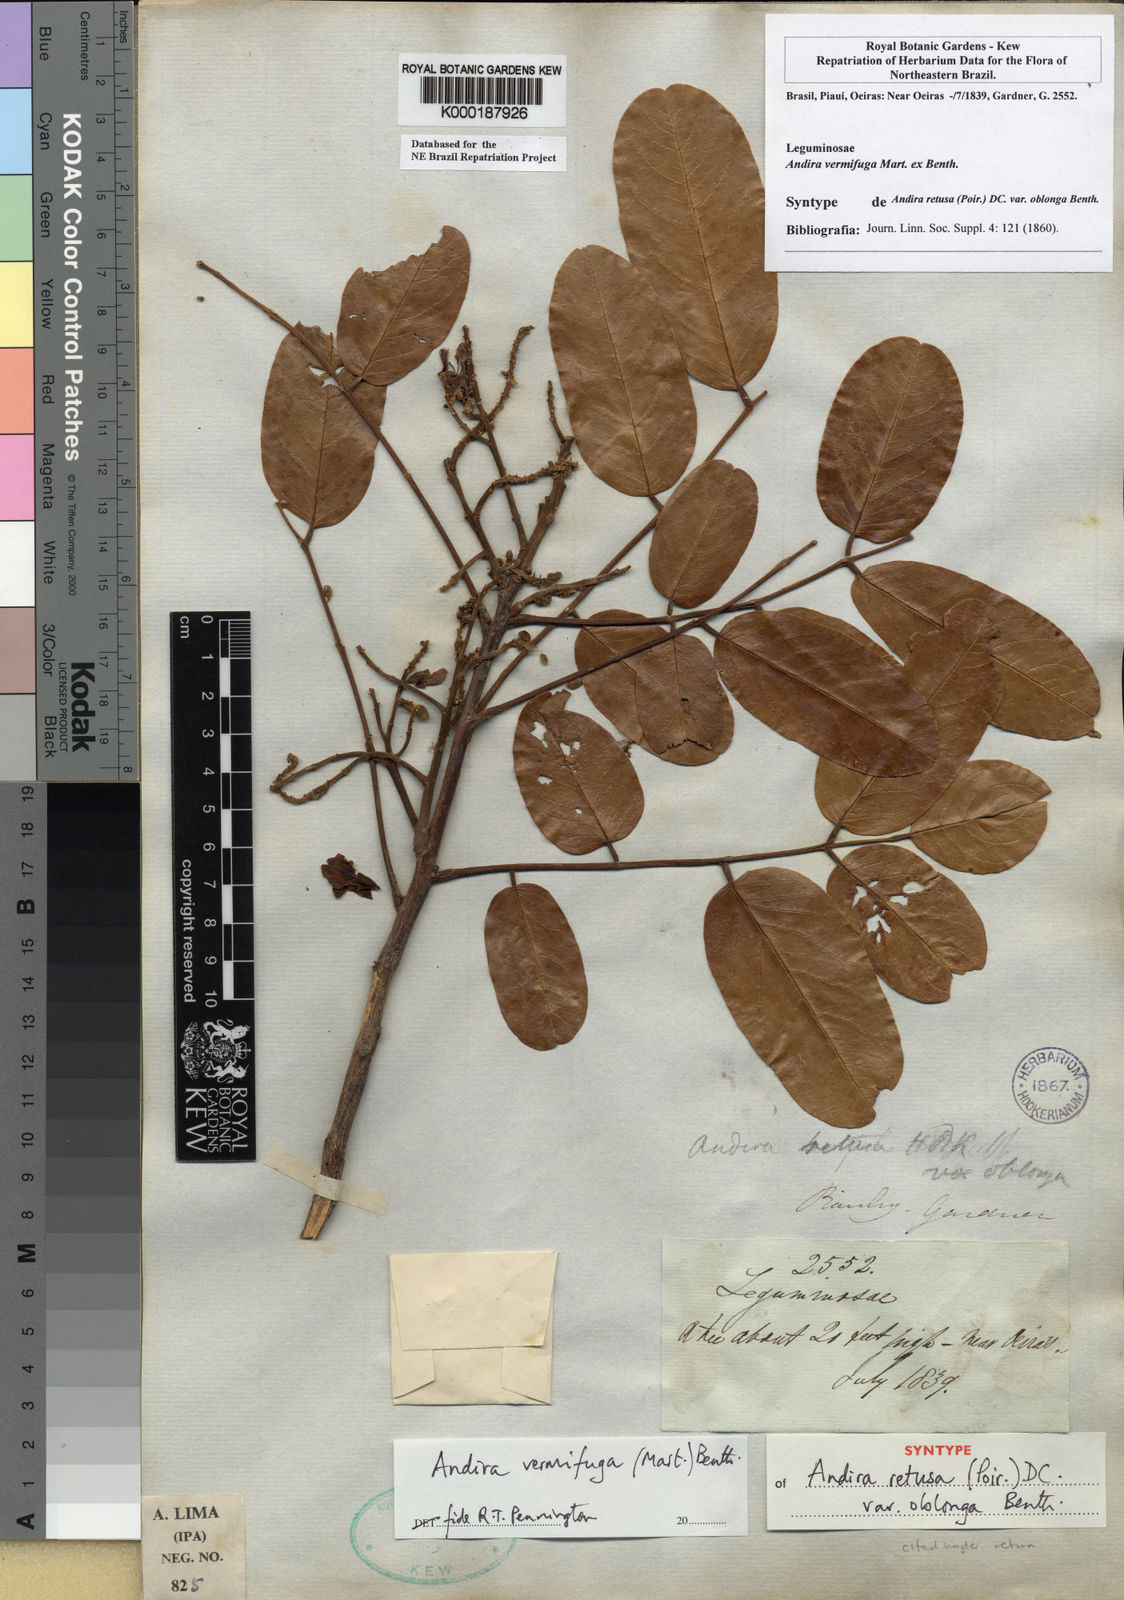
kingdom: Plantae
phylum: Tracheophyta
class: Magnoliopsida
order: Fabales
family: Fabaceae
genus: Andira
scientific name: Andira vermifuga
